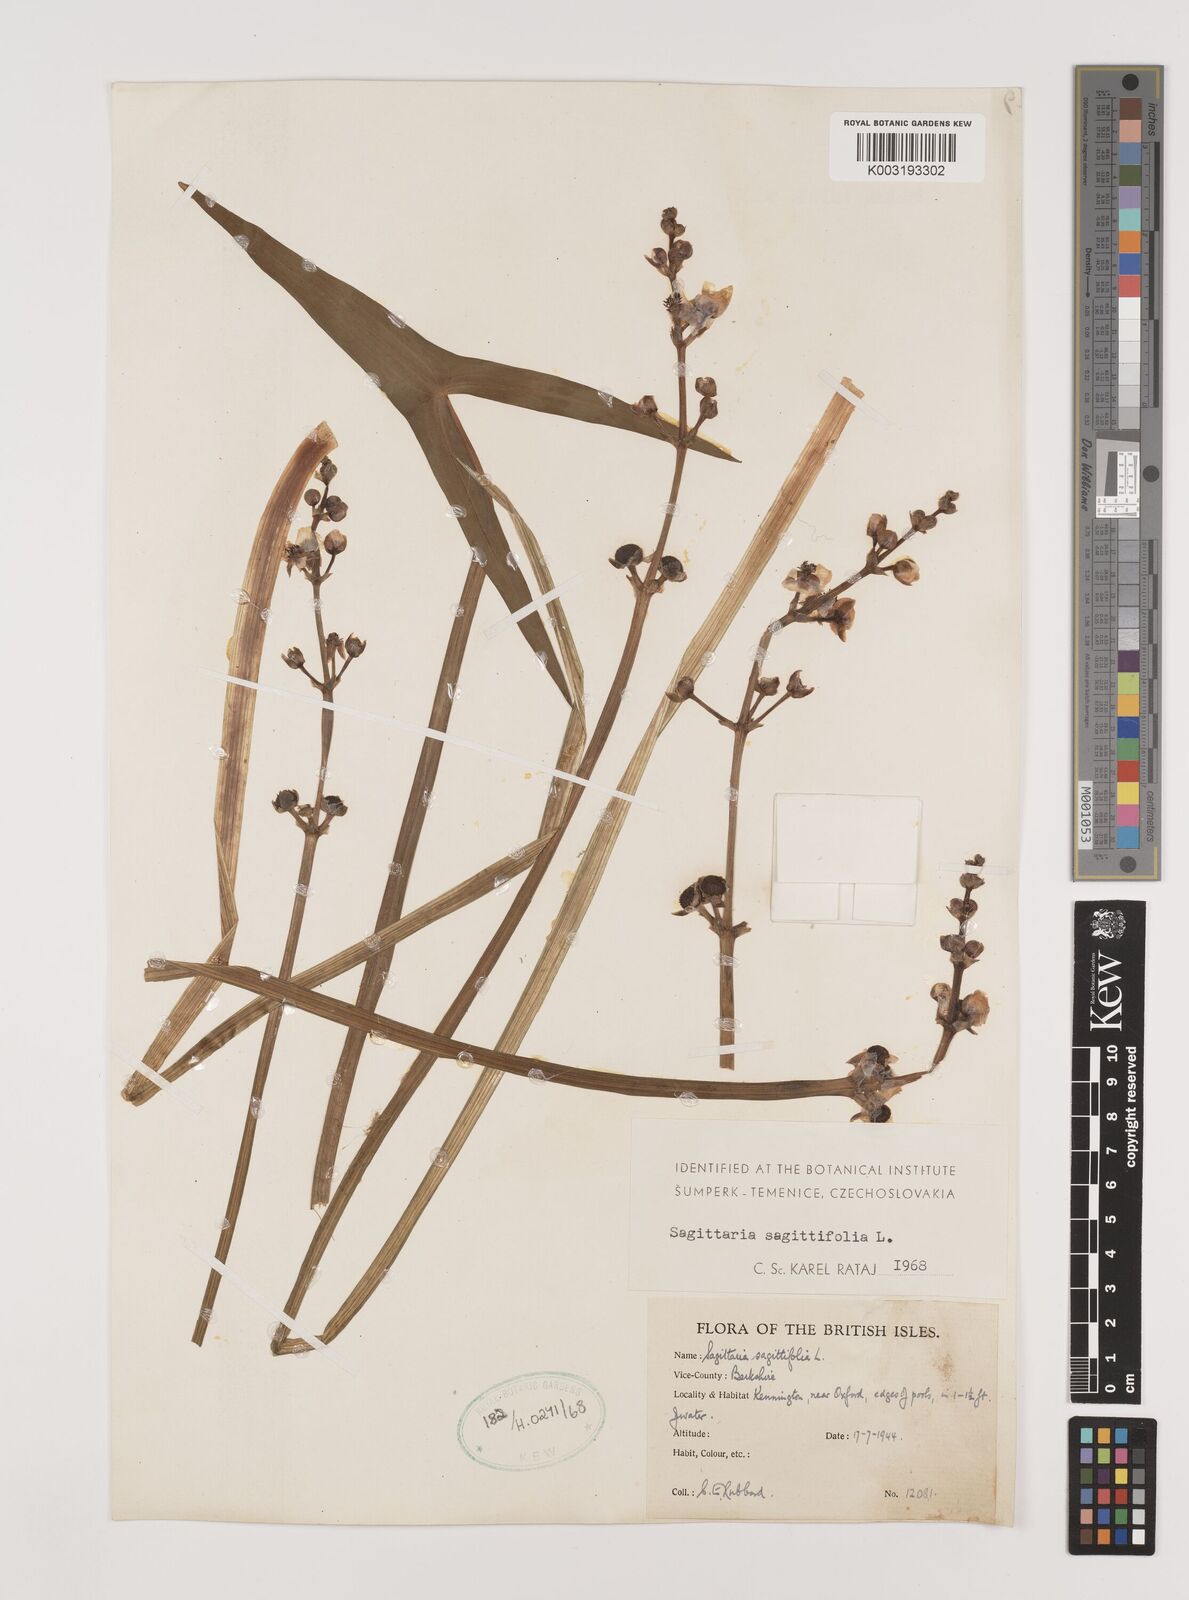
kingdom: Plantae
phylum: Tracheophyta
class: Liliopsida
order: Alismatales
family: Alismataceae
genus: Sagittaria
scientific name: Sagittaria sagittifolia
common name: Arrowhead
